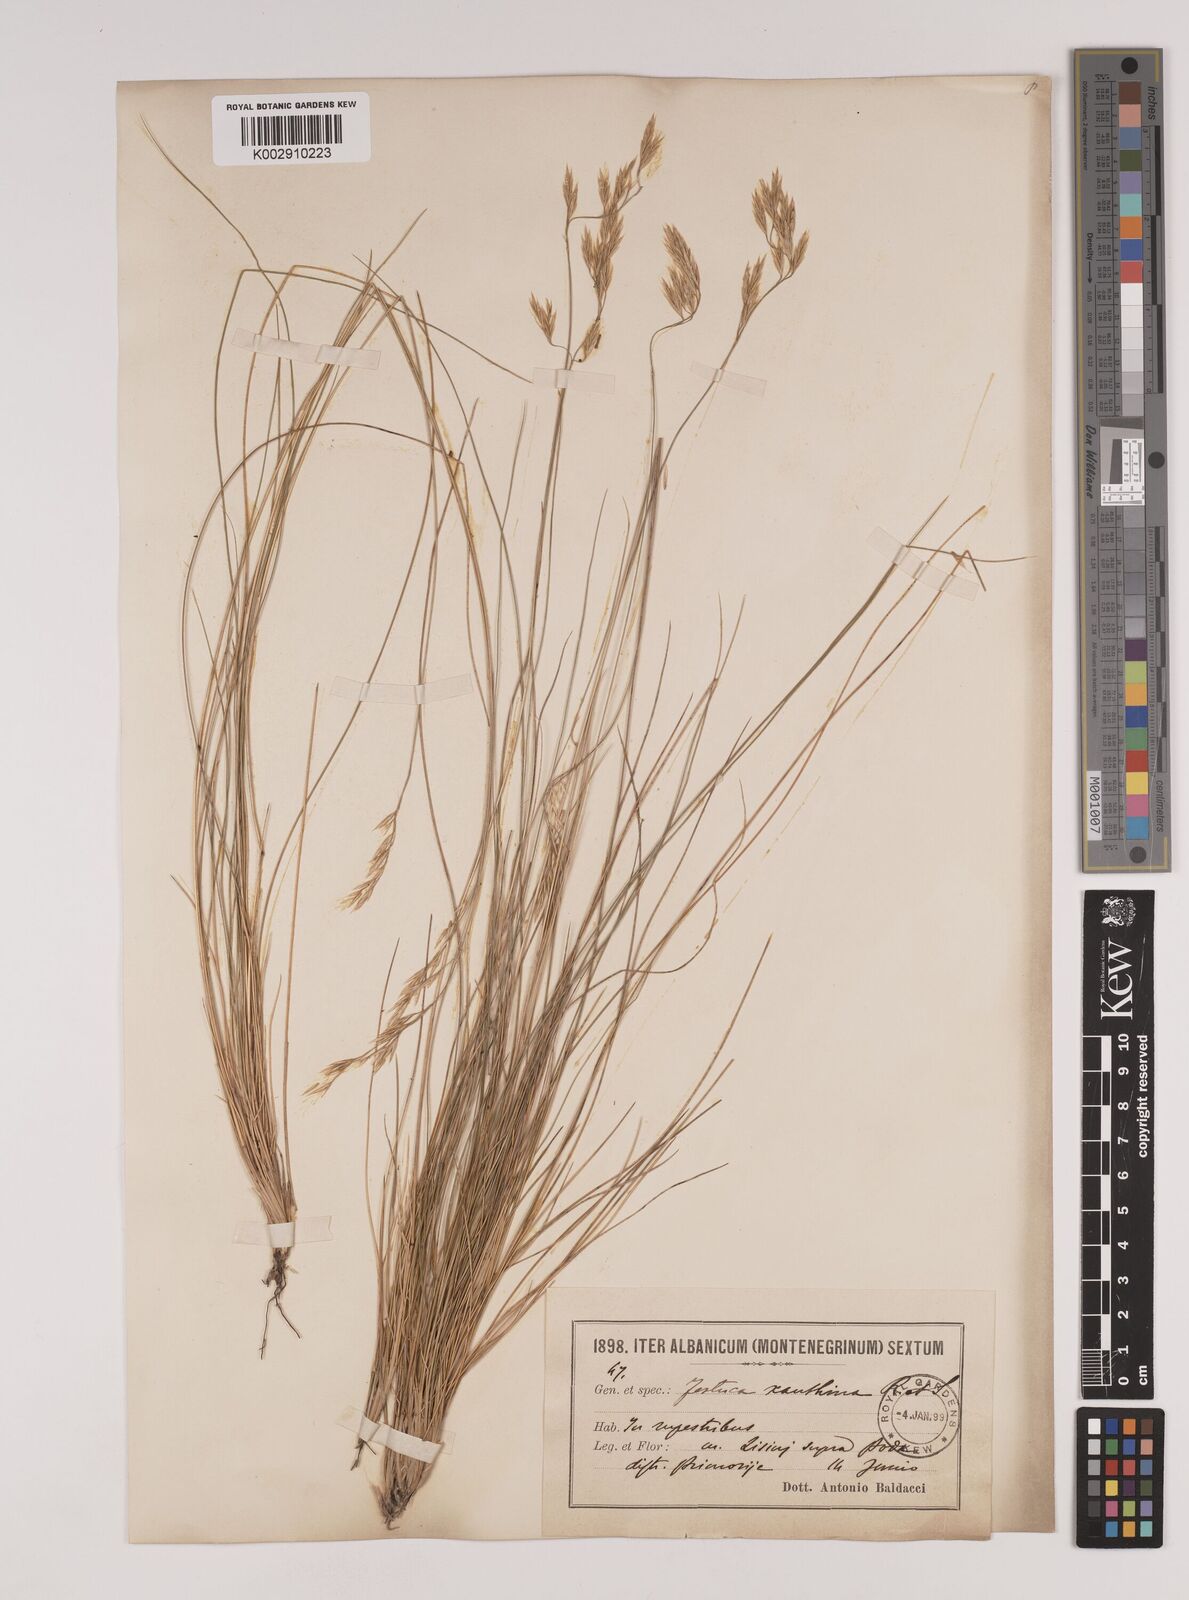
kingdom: Plantae
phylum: Tracheophyta
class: Liliopsida
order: Poales
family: Poaceae
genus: Festuca
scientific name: Festuca xanthina
